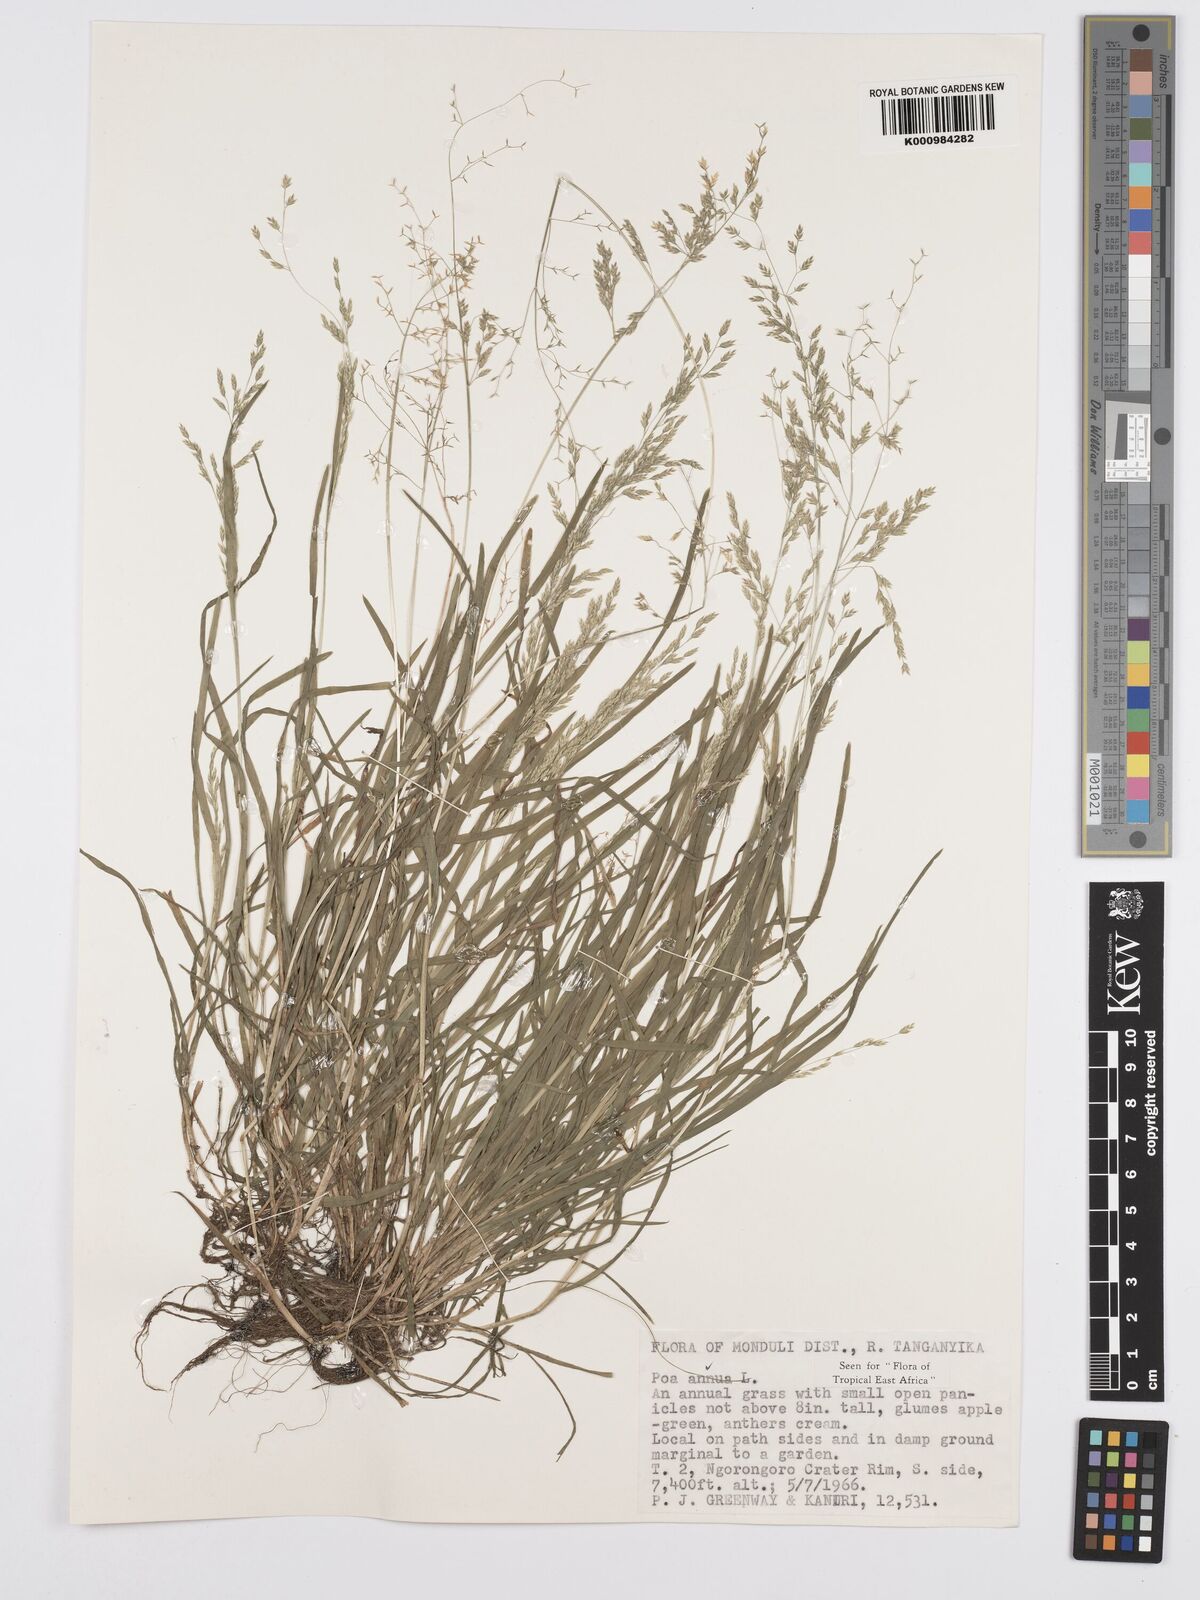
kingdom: Plantae
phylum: Tracheophyta
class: Liliopsida
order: Poales
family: Poaceae
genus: Poa
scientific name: Poa annua
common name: Annual bluegrass
